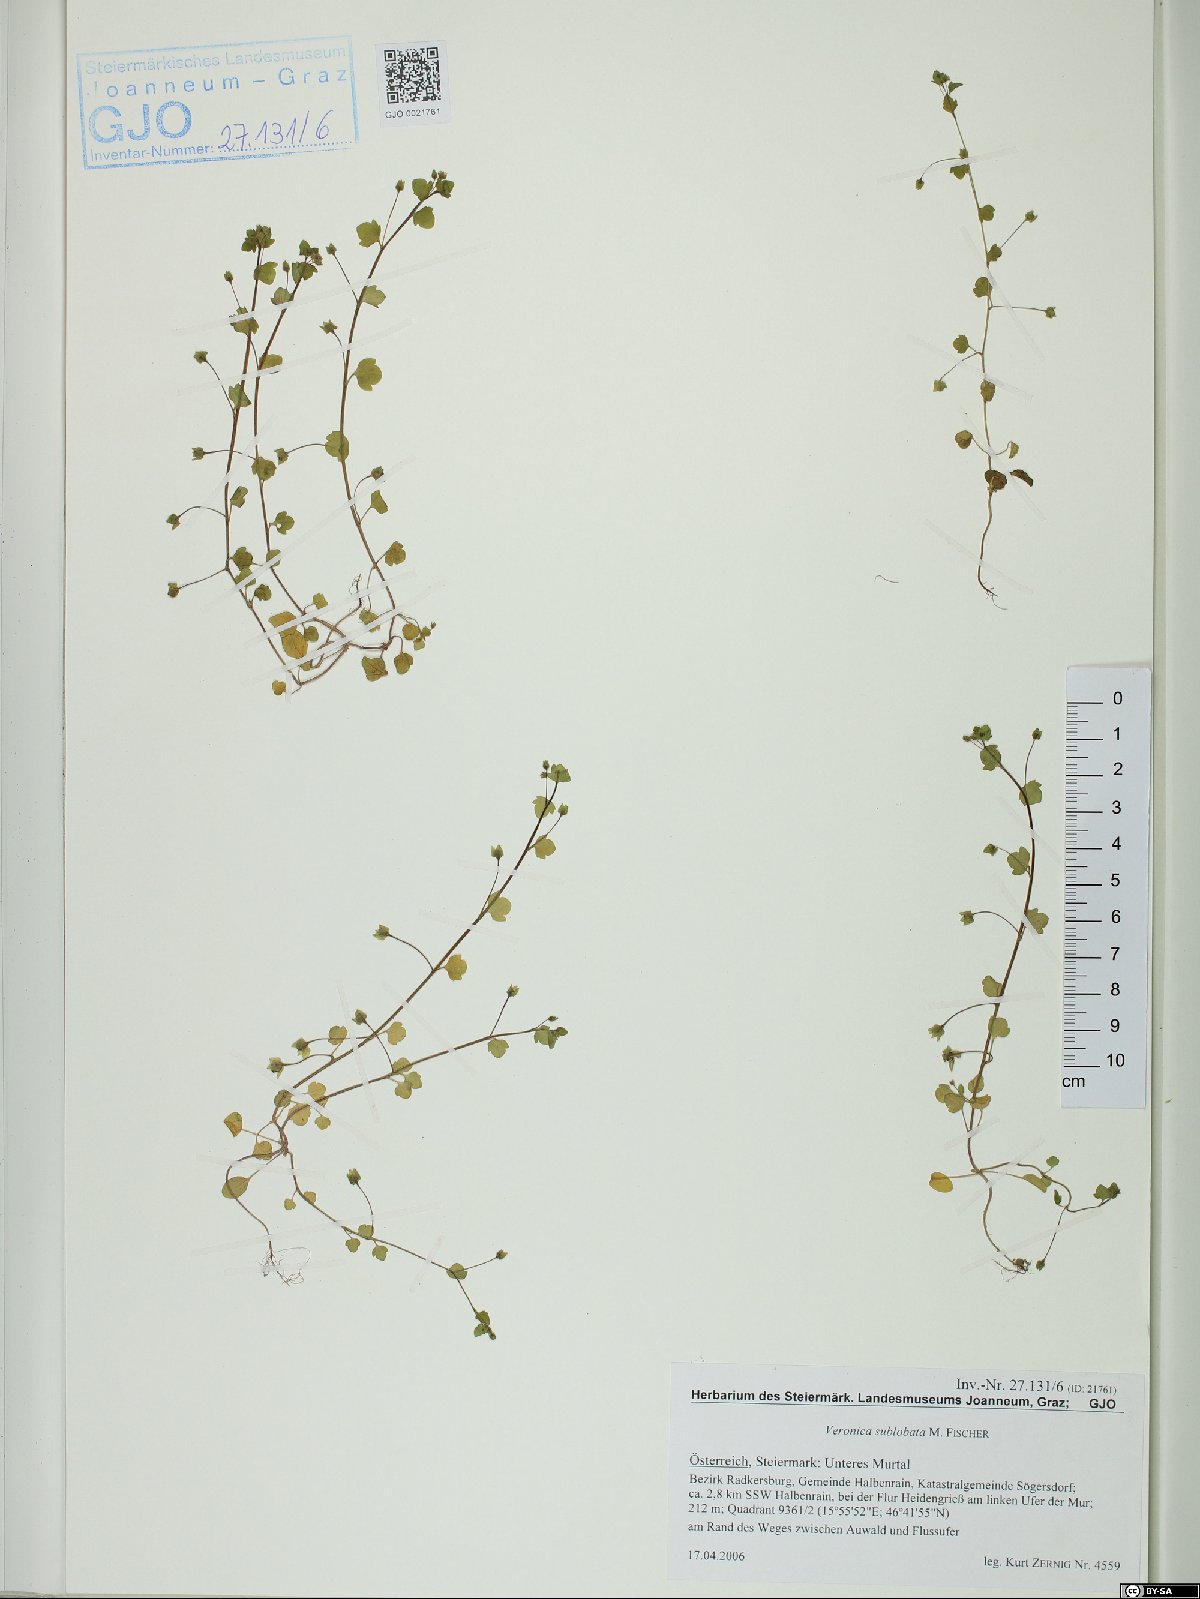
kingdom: Plantae
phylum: Tracheophyta
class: Magnoliopsida
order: Lamiales
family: Plantaginaceae
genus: Veronica
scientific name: Veronica sublobata
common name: False ivy-leaved speedwell
